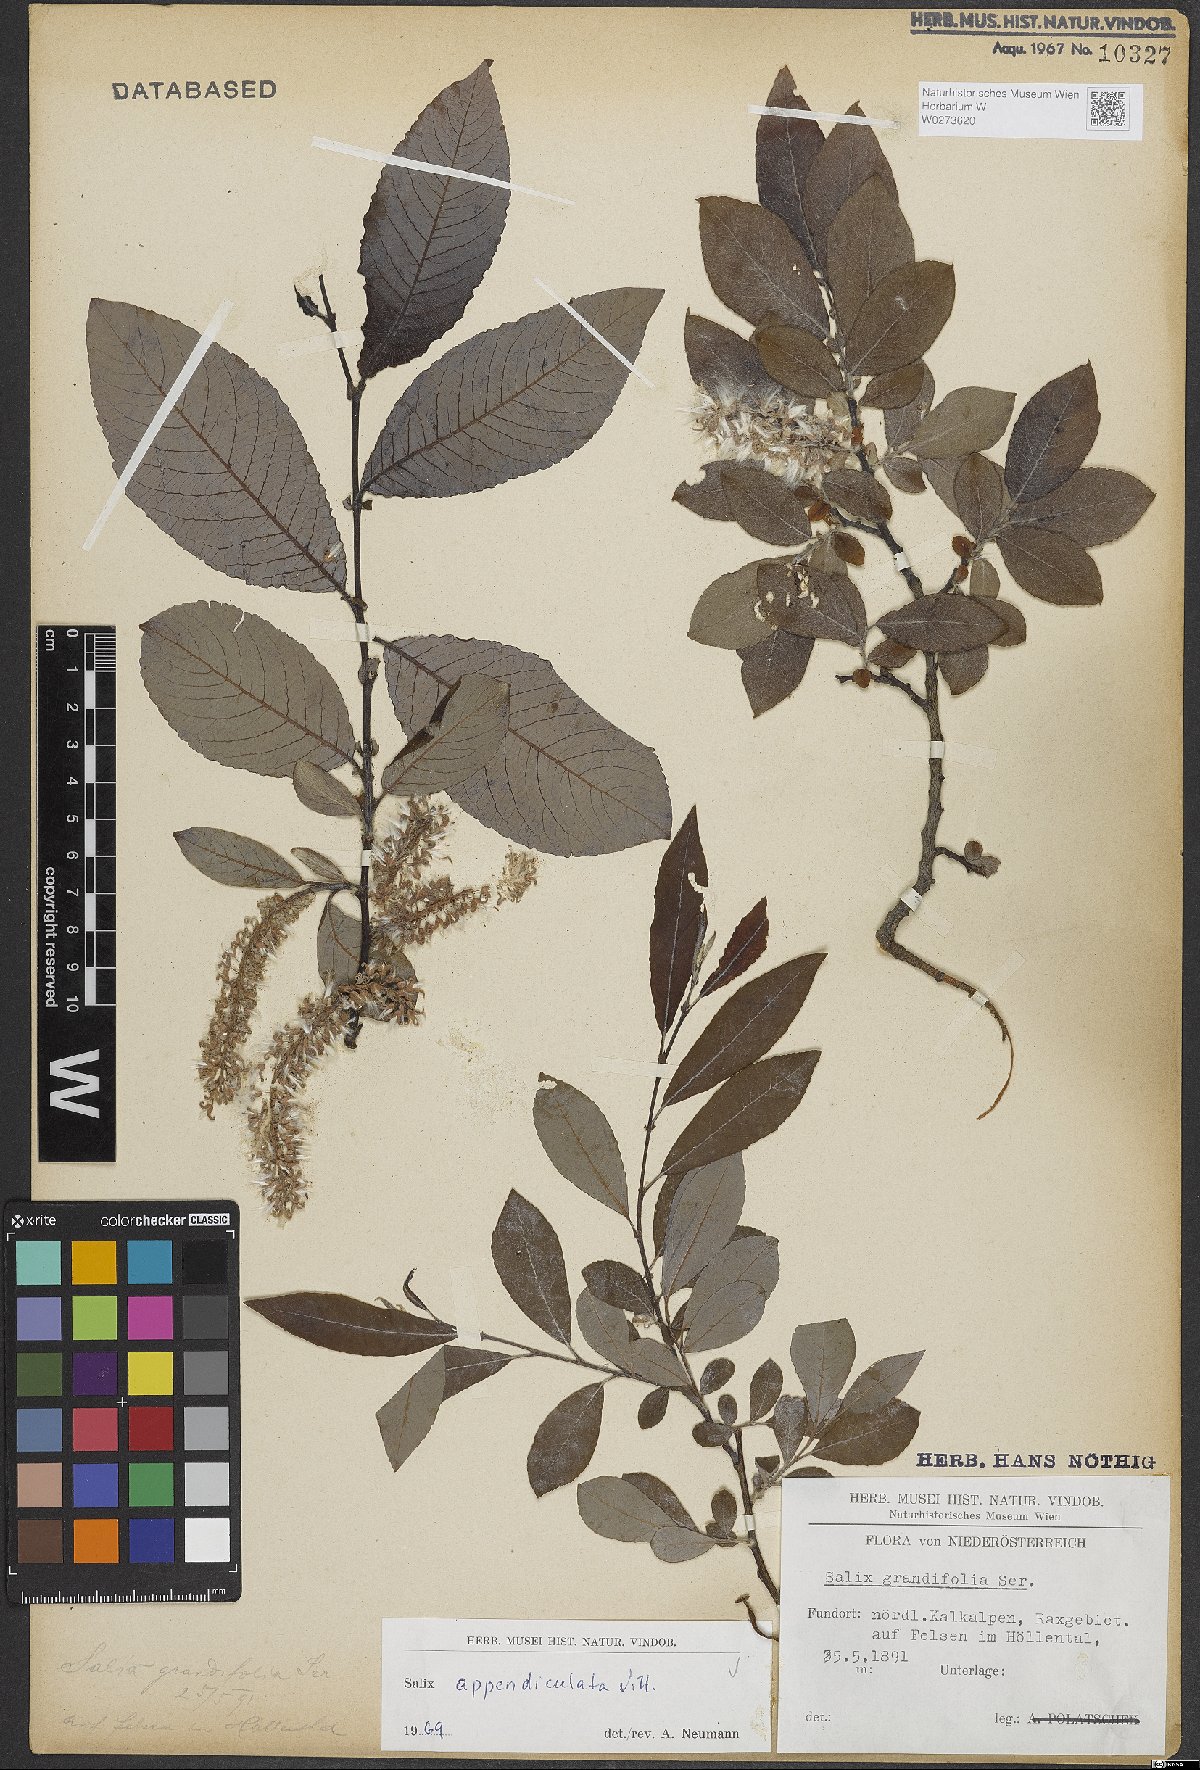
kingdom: Plantae
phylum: Tracheophyta
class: Magnoliopsida
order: Malpighiales
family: Salicaceae
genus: Salix
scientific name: Salix appendiculata
